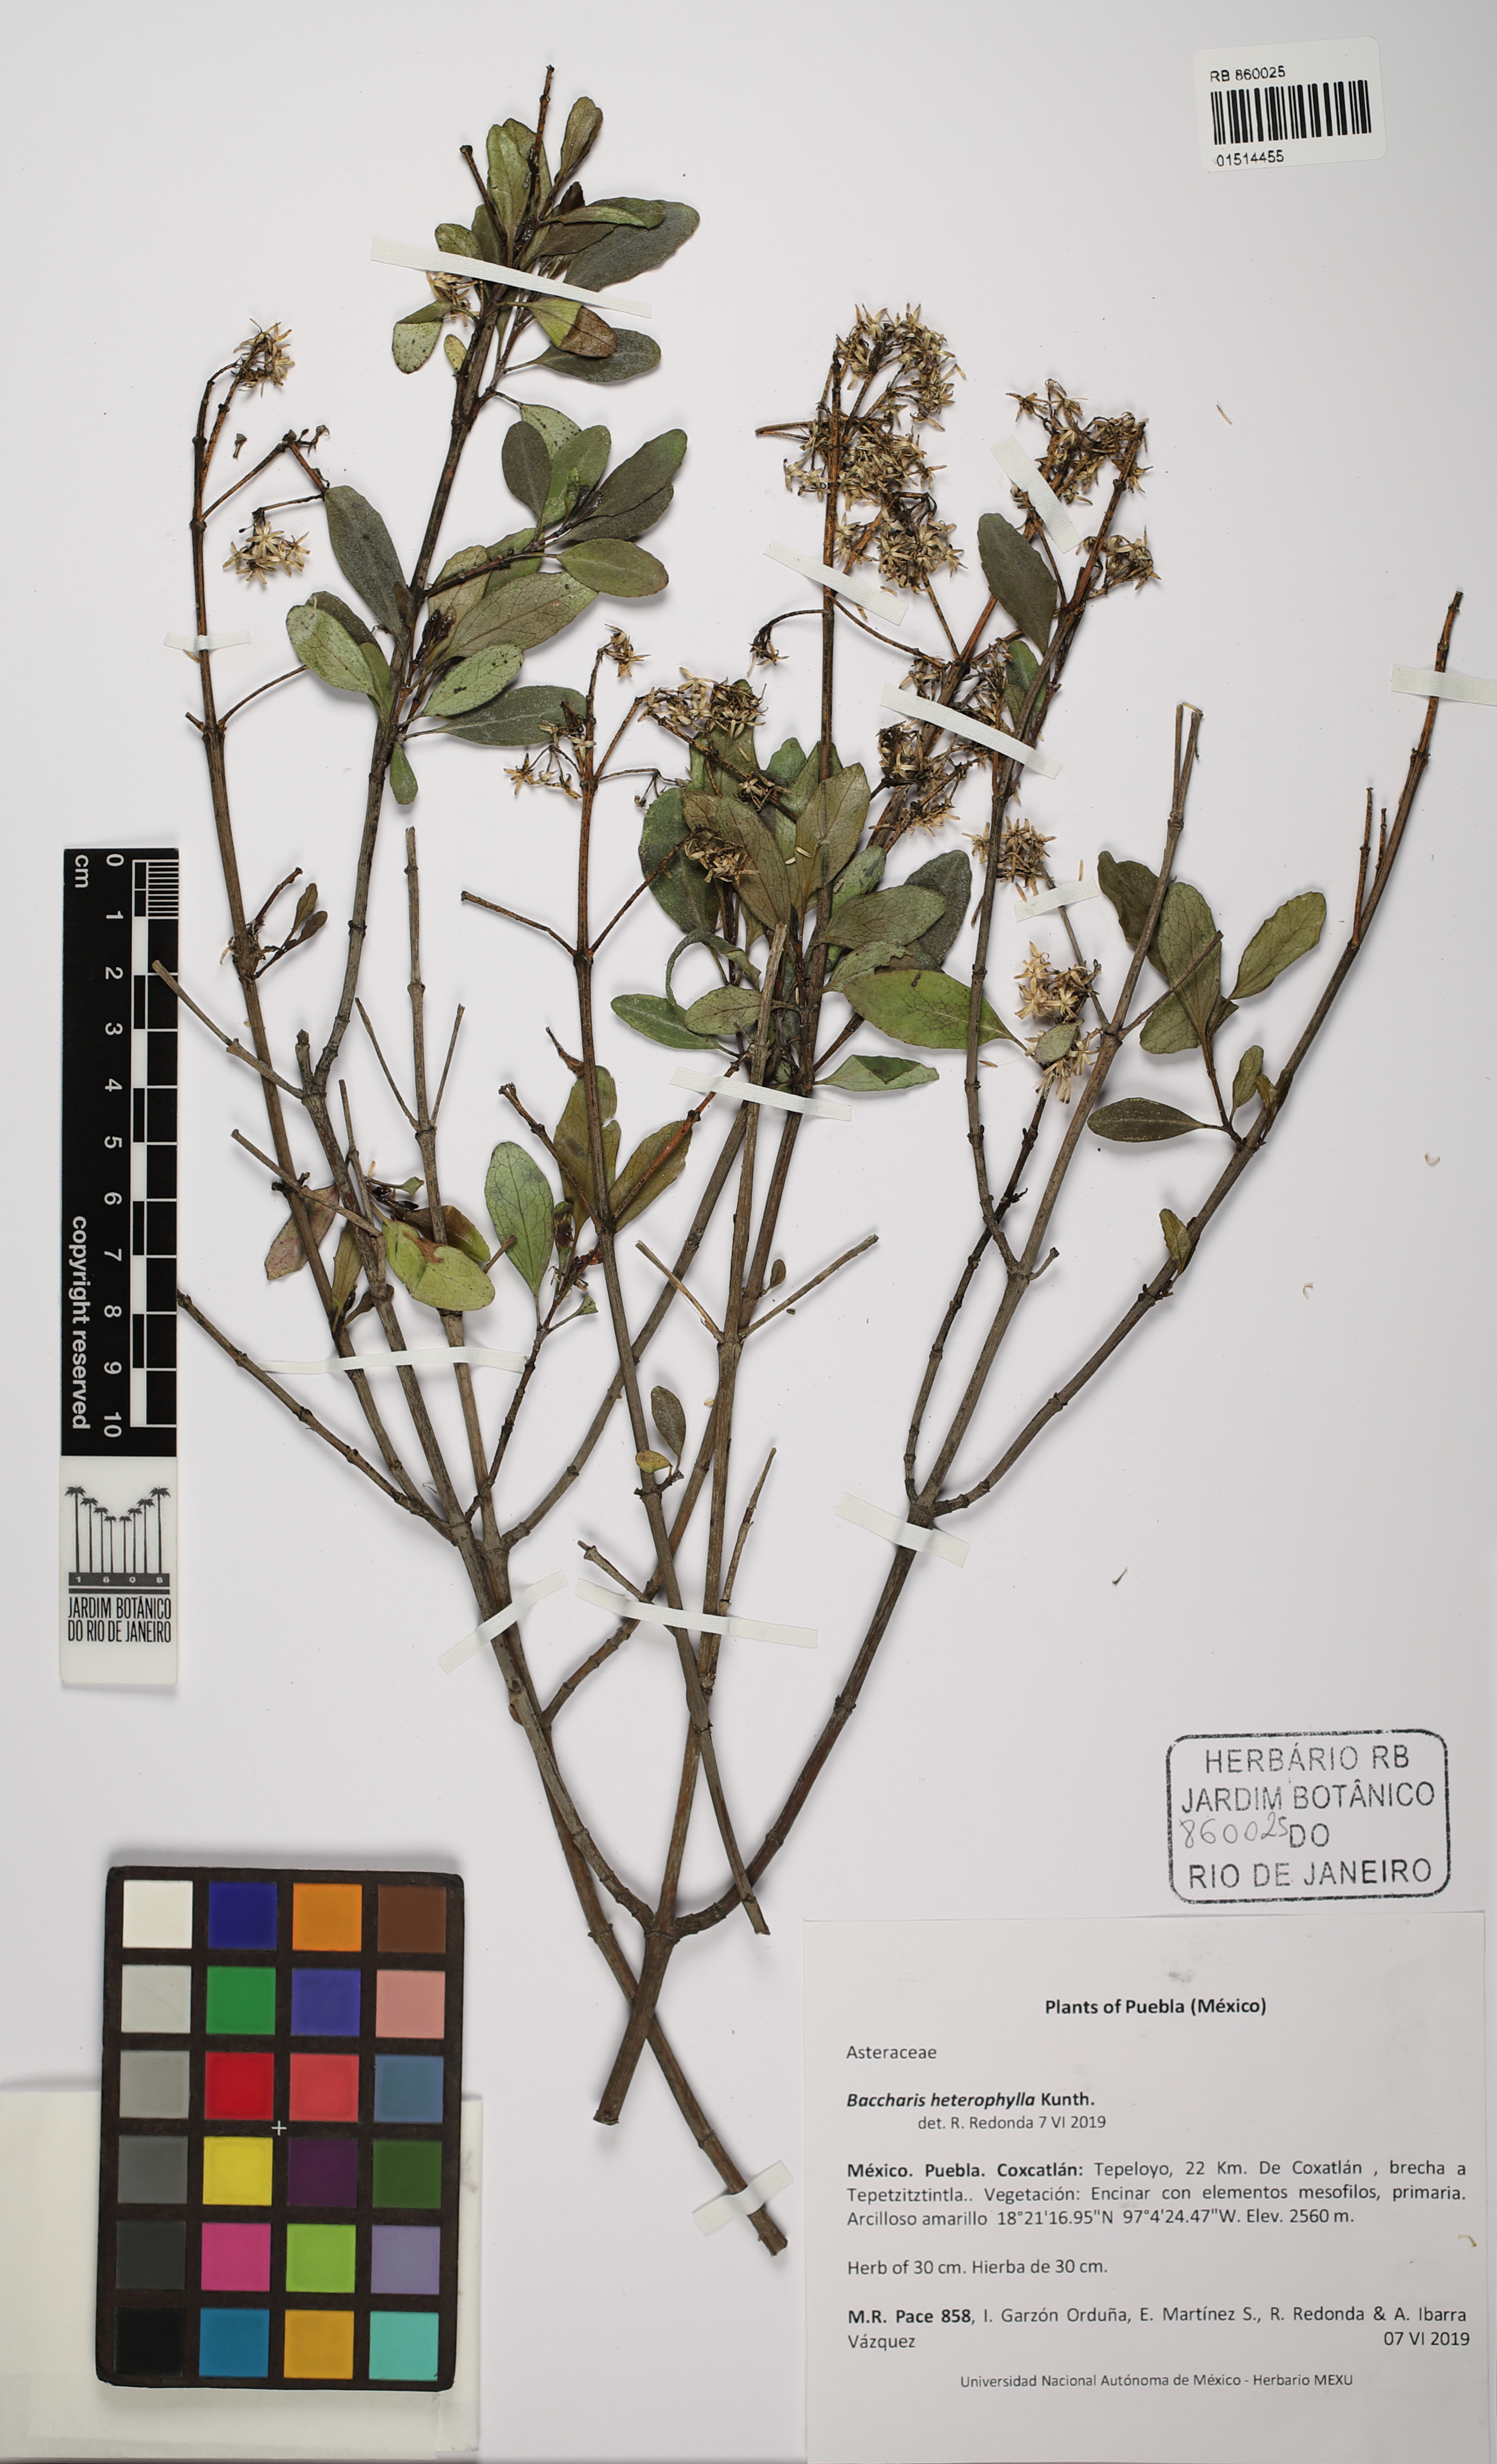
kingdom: Plantae
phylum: Tracheophyta
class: Magnoliopsida
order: Asterales
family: Asteraceae
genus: Baccharis
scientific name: Baccharis heterophylla
